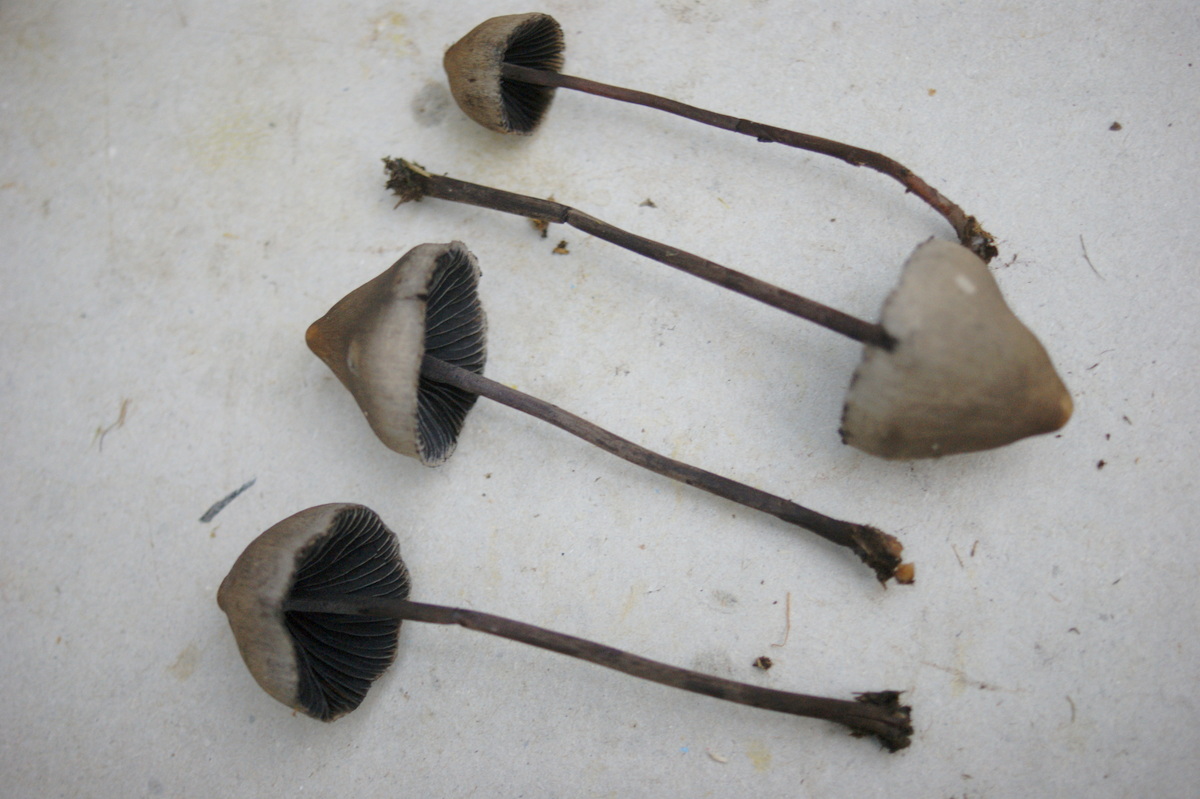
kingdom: Fungi
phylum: Basidiomycota
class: Agaricomycetes
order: Agaricales
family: Bolbitiaceae
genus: Panaeolus
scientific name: Panaeolus acuminatus
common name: høj glanshat
